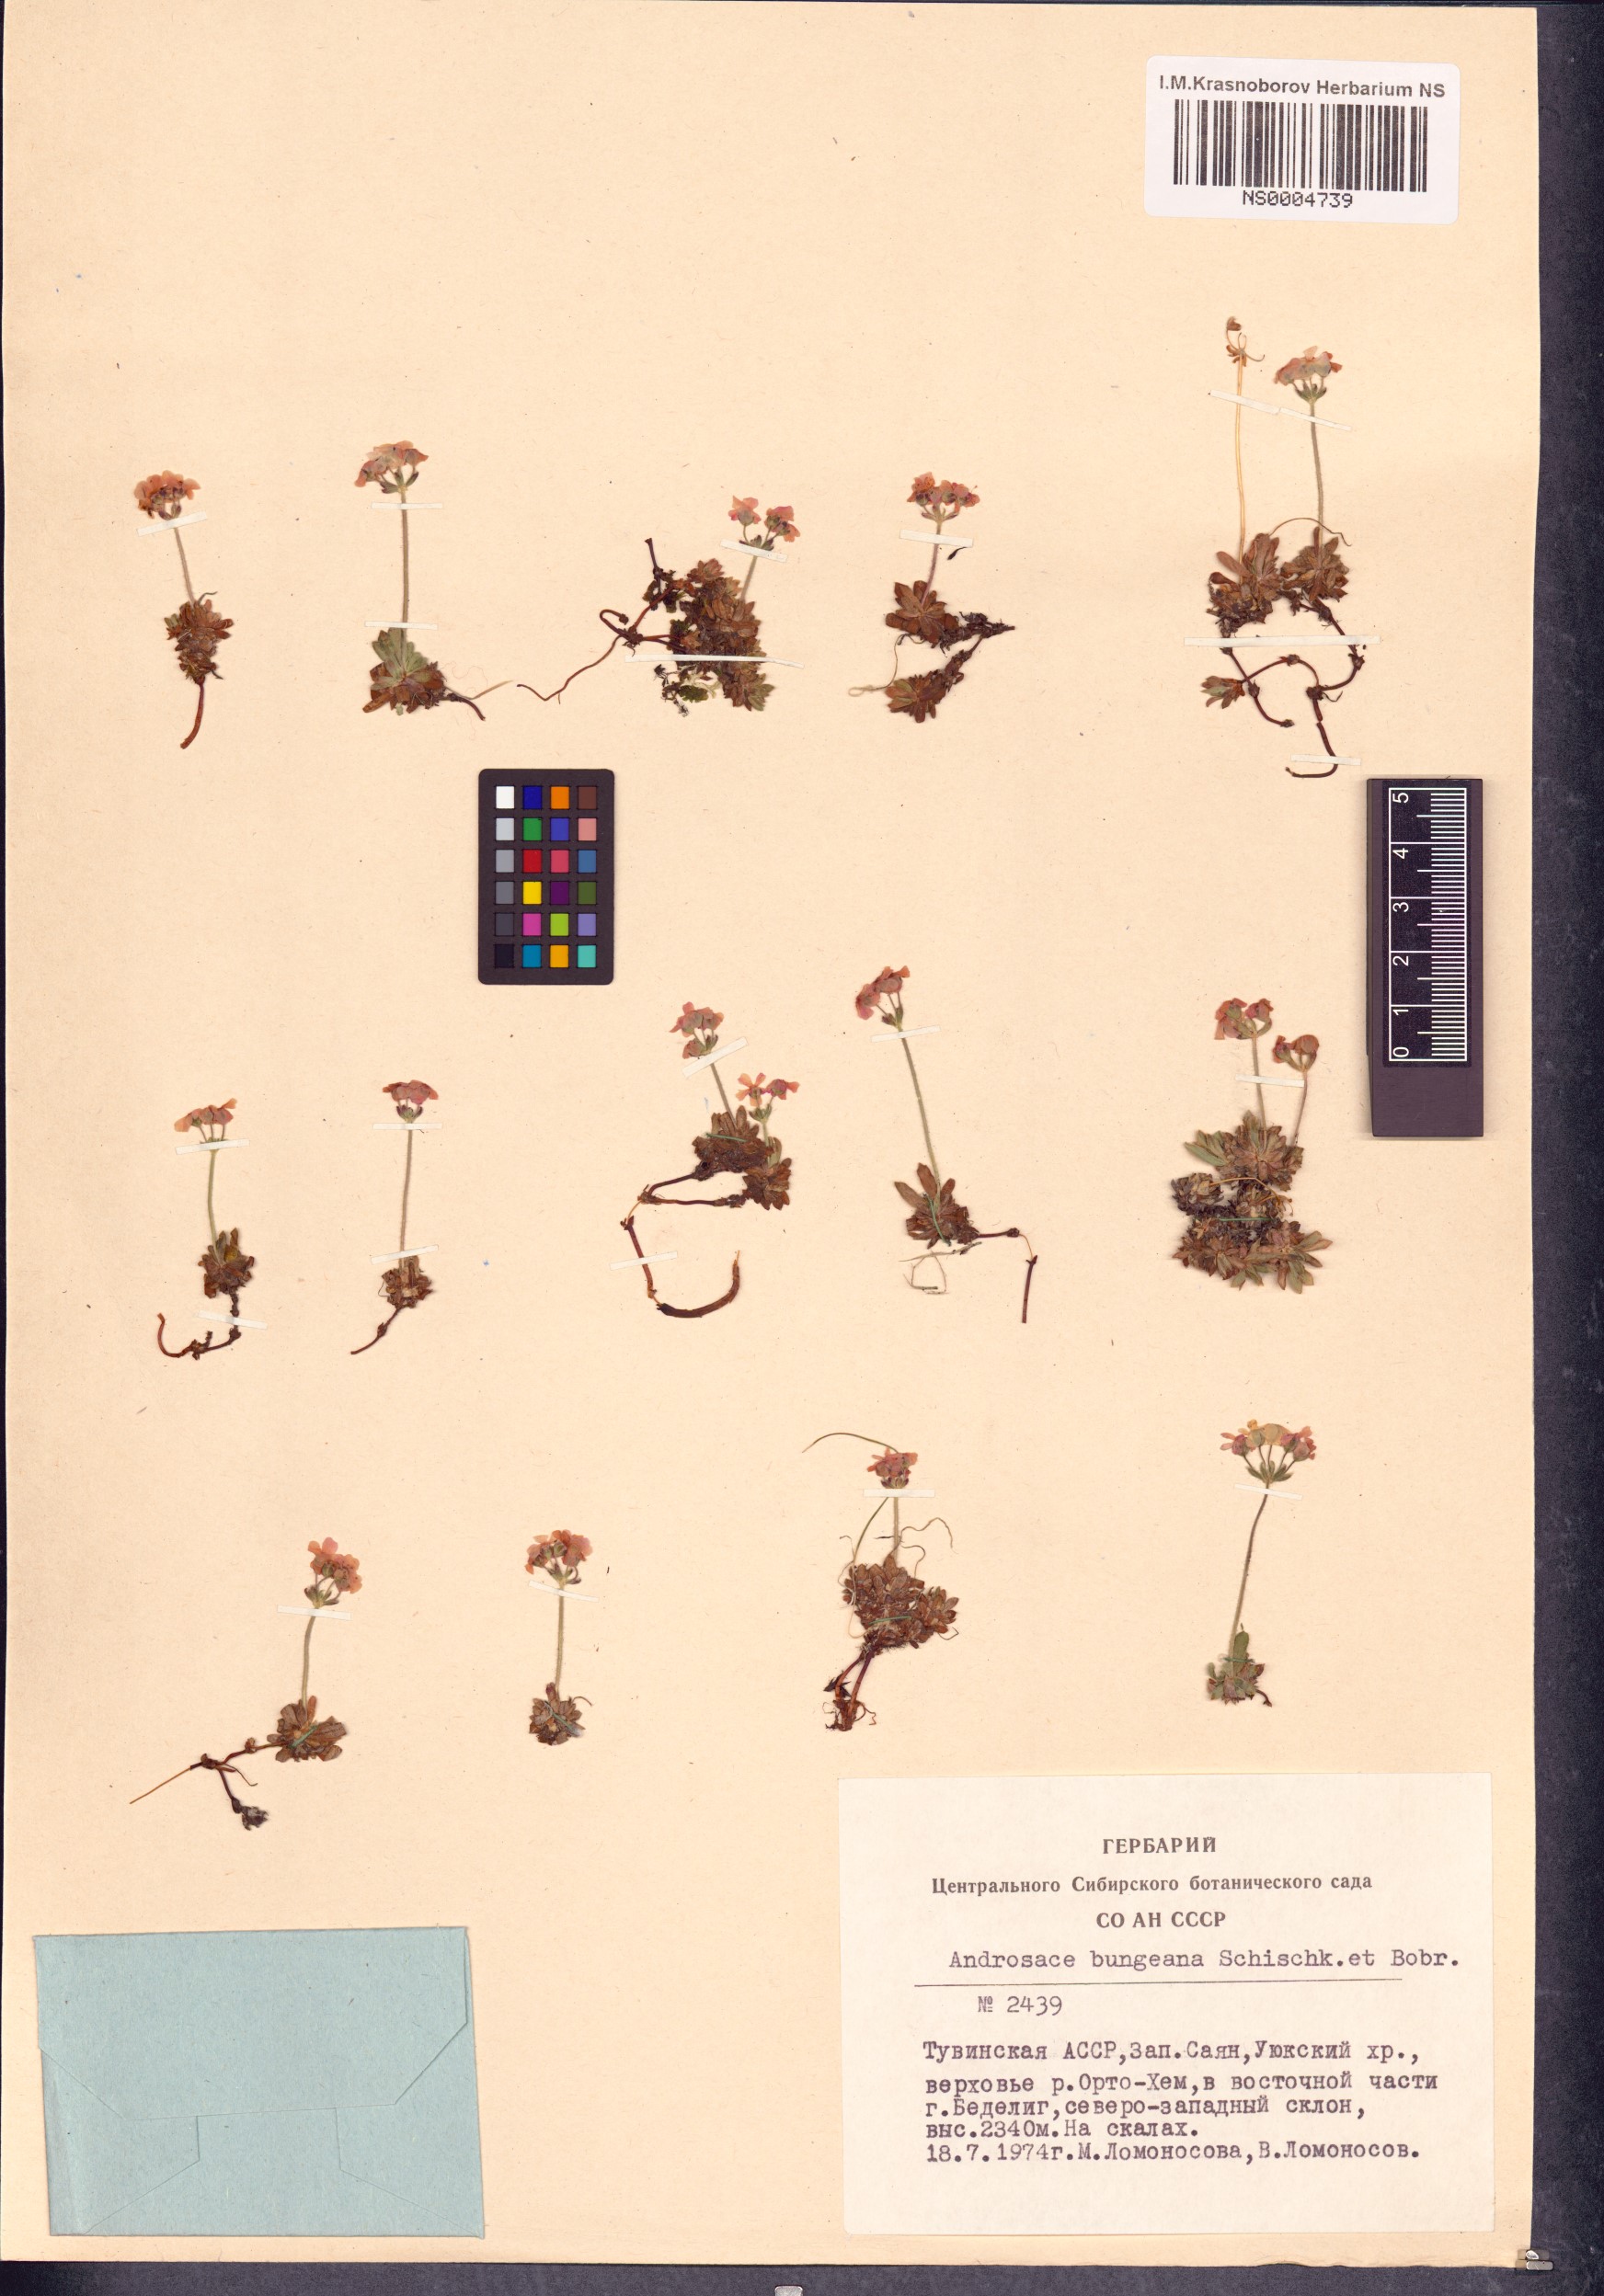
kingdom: Plantae
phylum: Tracheophyta
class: Magnoliopsida
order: Ericales
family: Primulaceae
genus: Androsace
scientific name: Androsace bungeana
